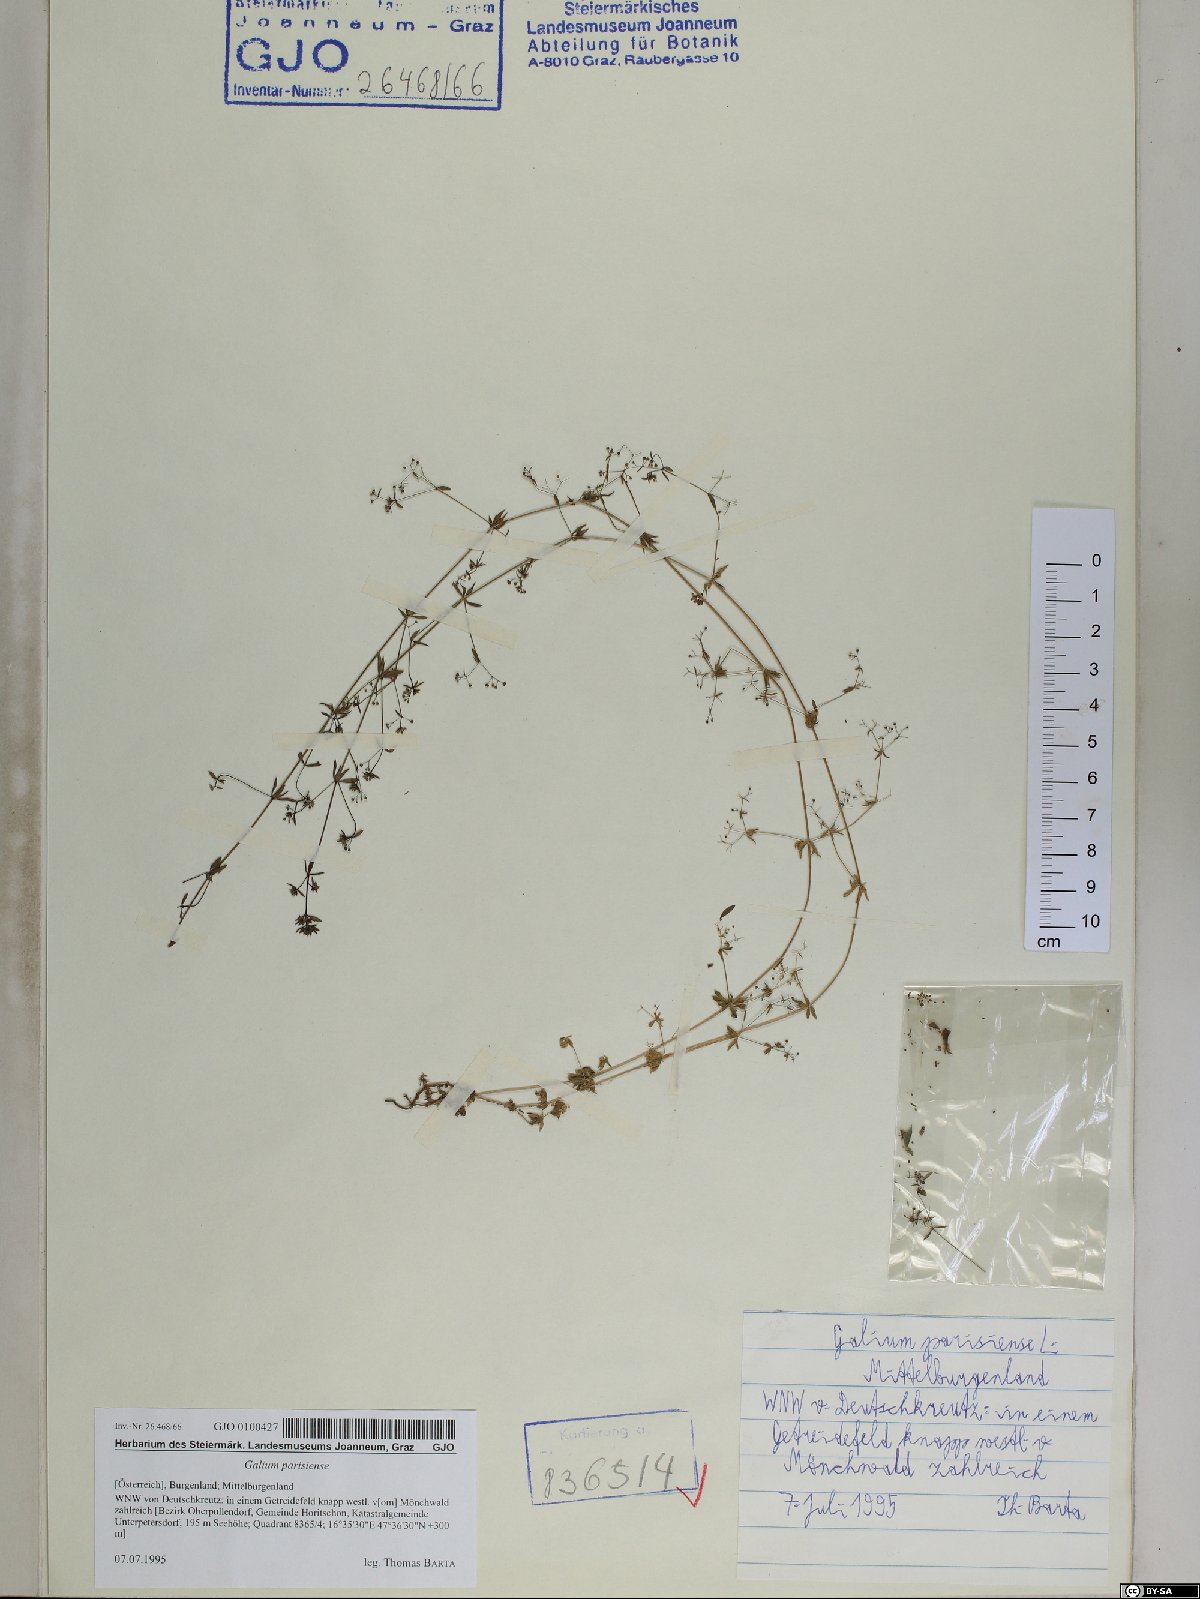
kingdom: Plantae
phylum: Tracheophyta
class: Magnoliopsida
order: Gentianales
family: Rubiaceae
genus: Galium
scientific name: Galium parisiense
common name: Wall bedstraw
